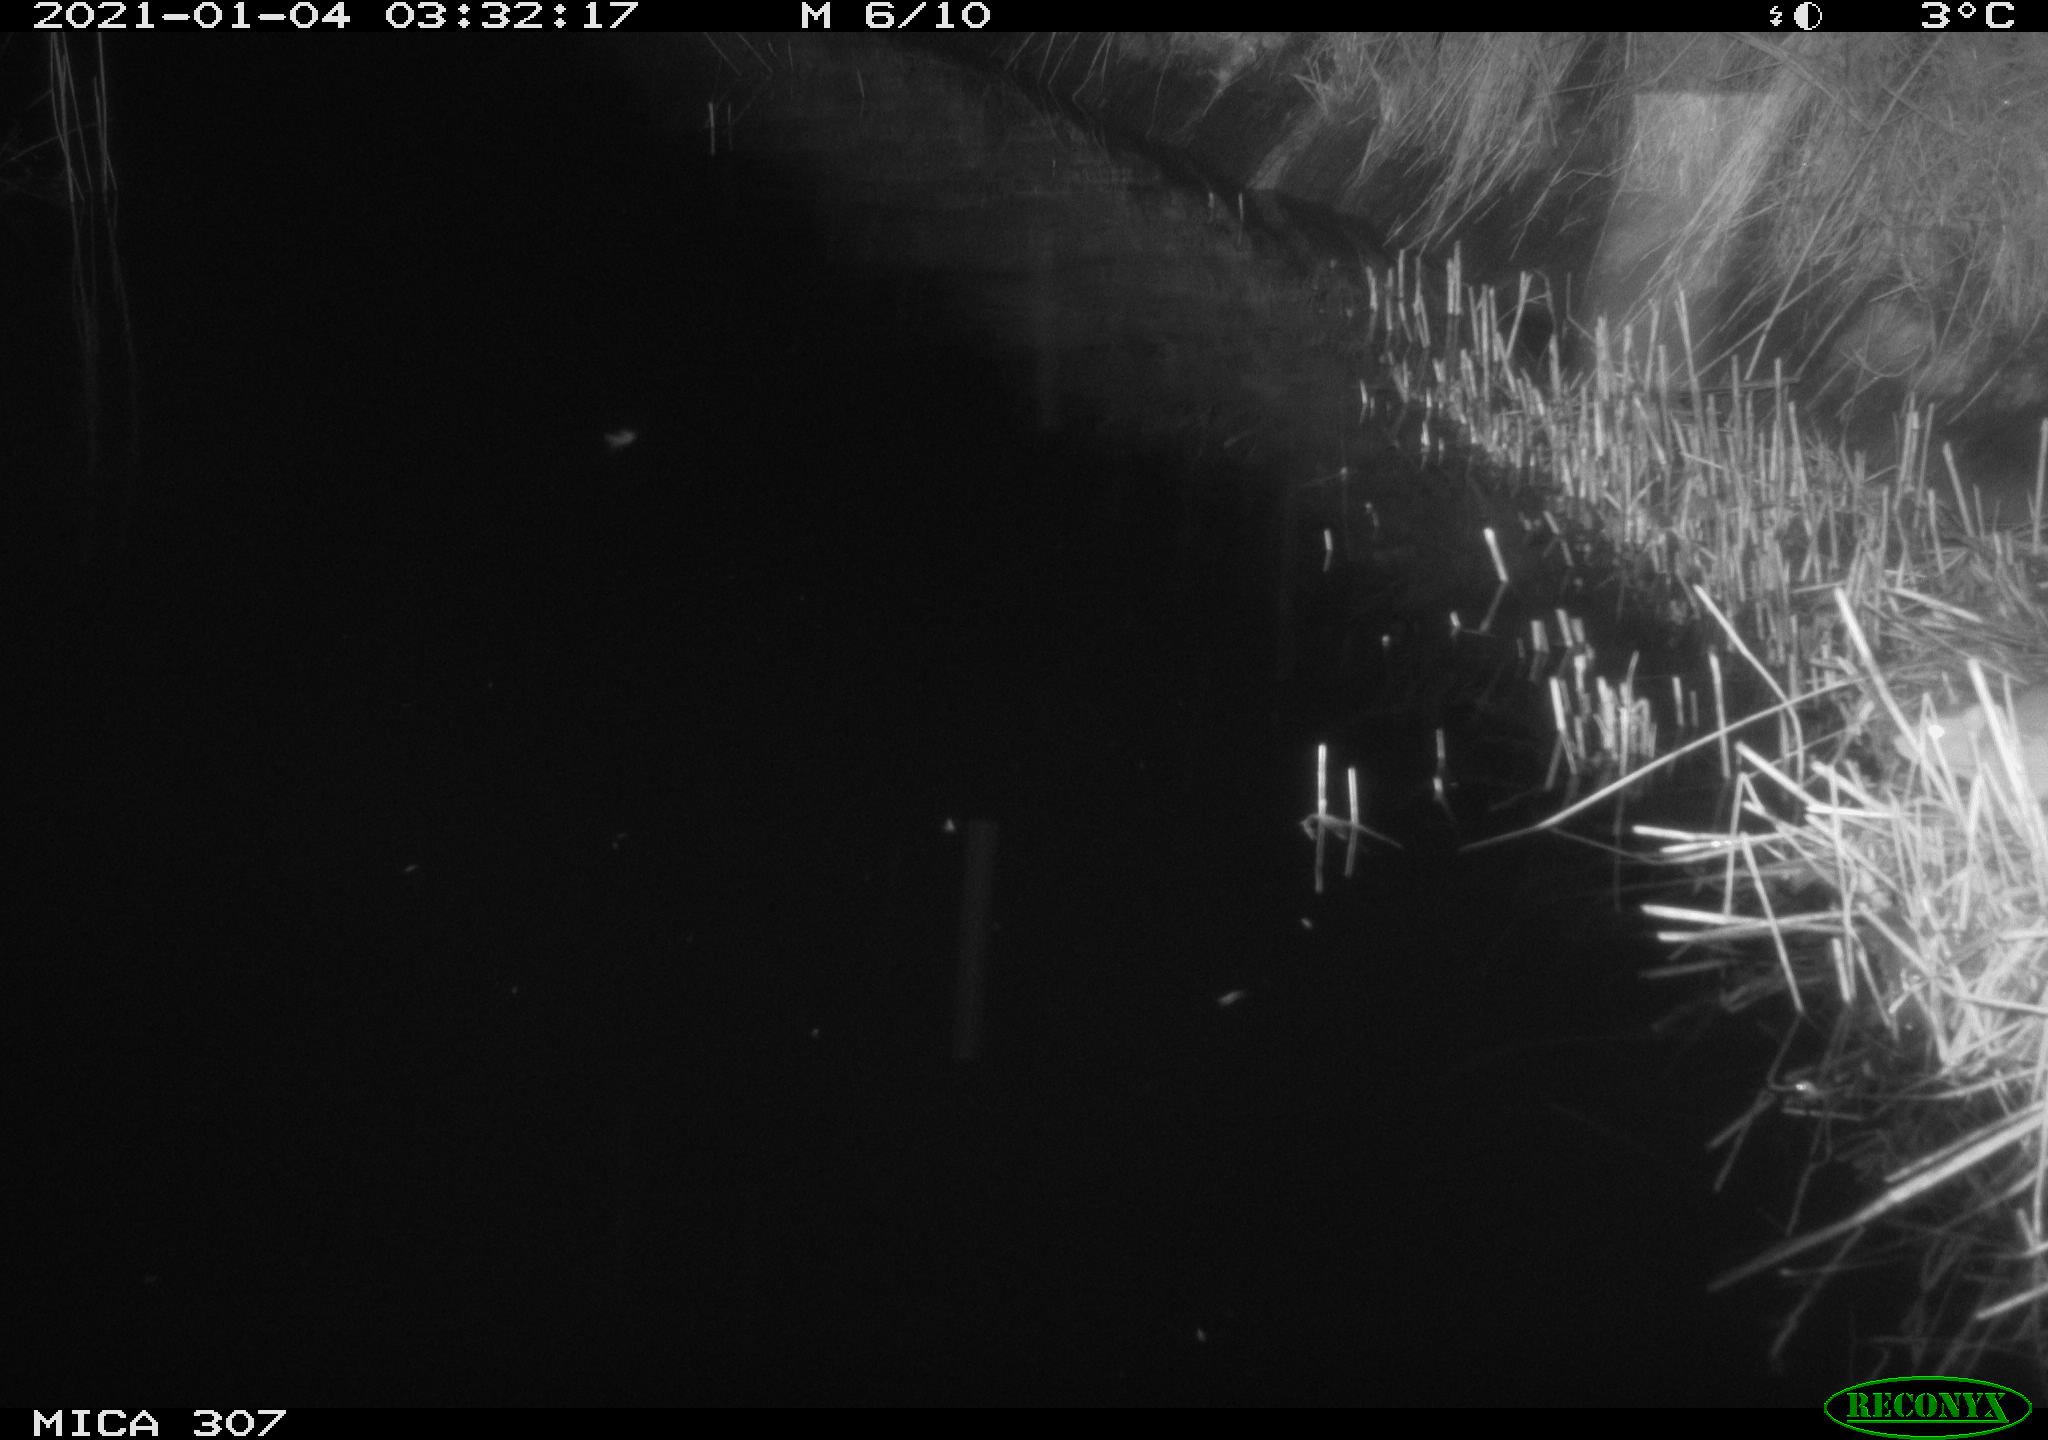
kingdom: Animalia
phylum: Chordata
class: Mammalia
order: Rodentia
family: Muridae
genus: Rattus
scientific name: Rattus norvegicus
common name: Brown rat
